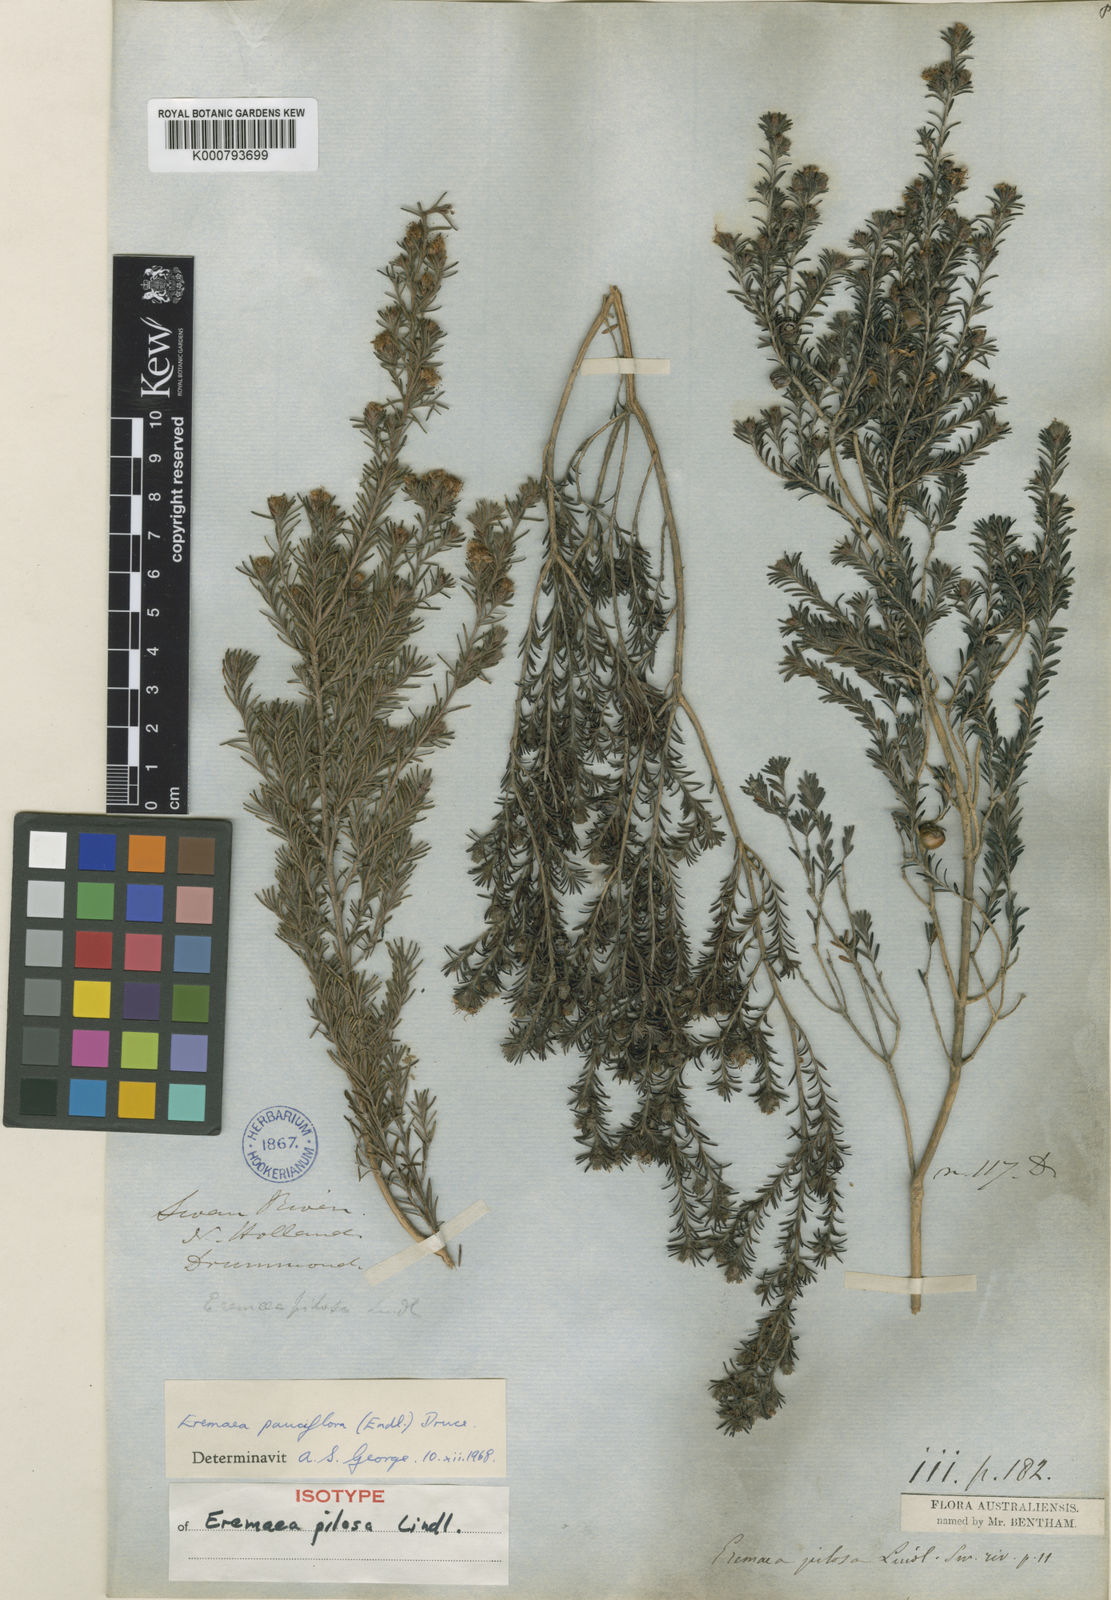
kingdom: Plantae
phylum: Tracheophyta
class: Magnoliopsida
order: Myrtales
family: Myrtaceae
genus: Melaleuca
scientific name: Melaleuca rariflora
